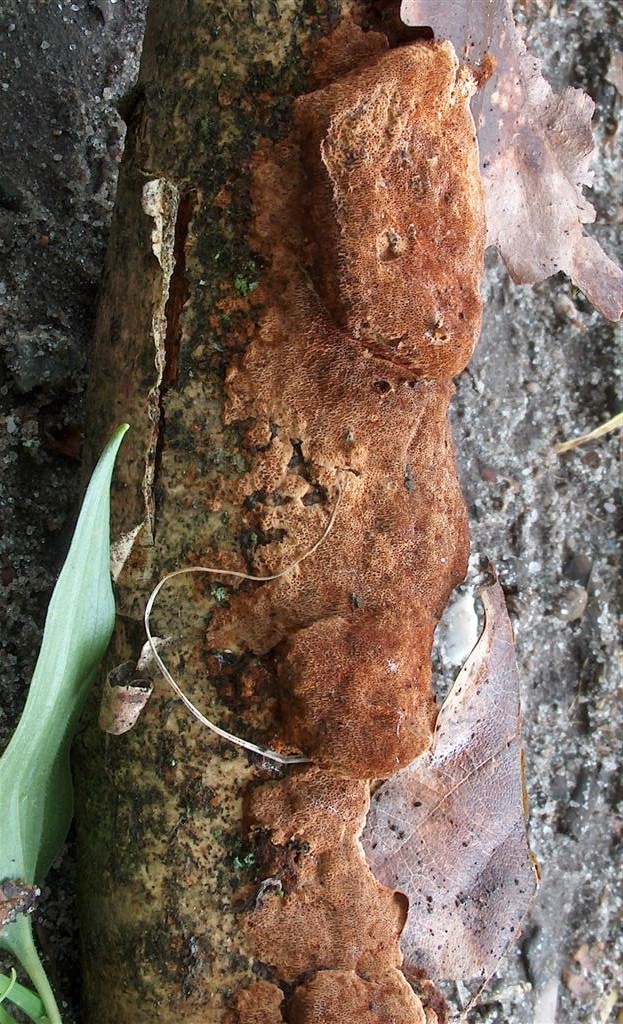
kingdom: Fungi
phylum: Basidiomycota
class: Agaricomycetes
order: Hymenochaetales
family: Hymenochaetaceae
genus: Fuscoporia
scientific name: Fuscoporia ferrea
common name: skorpe-ildporesvamp
